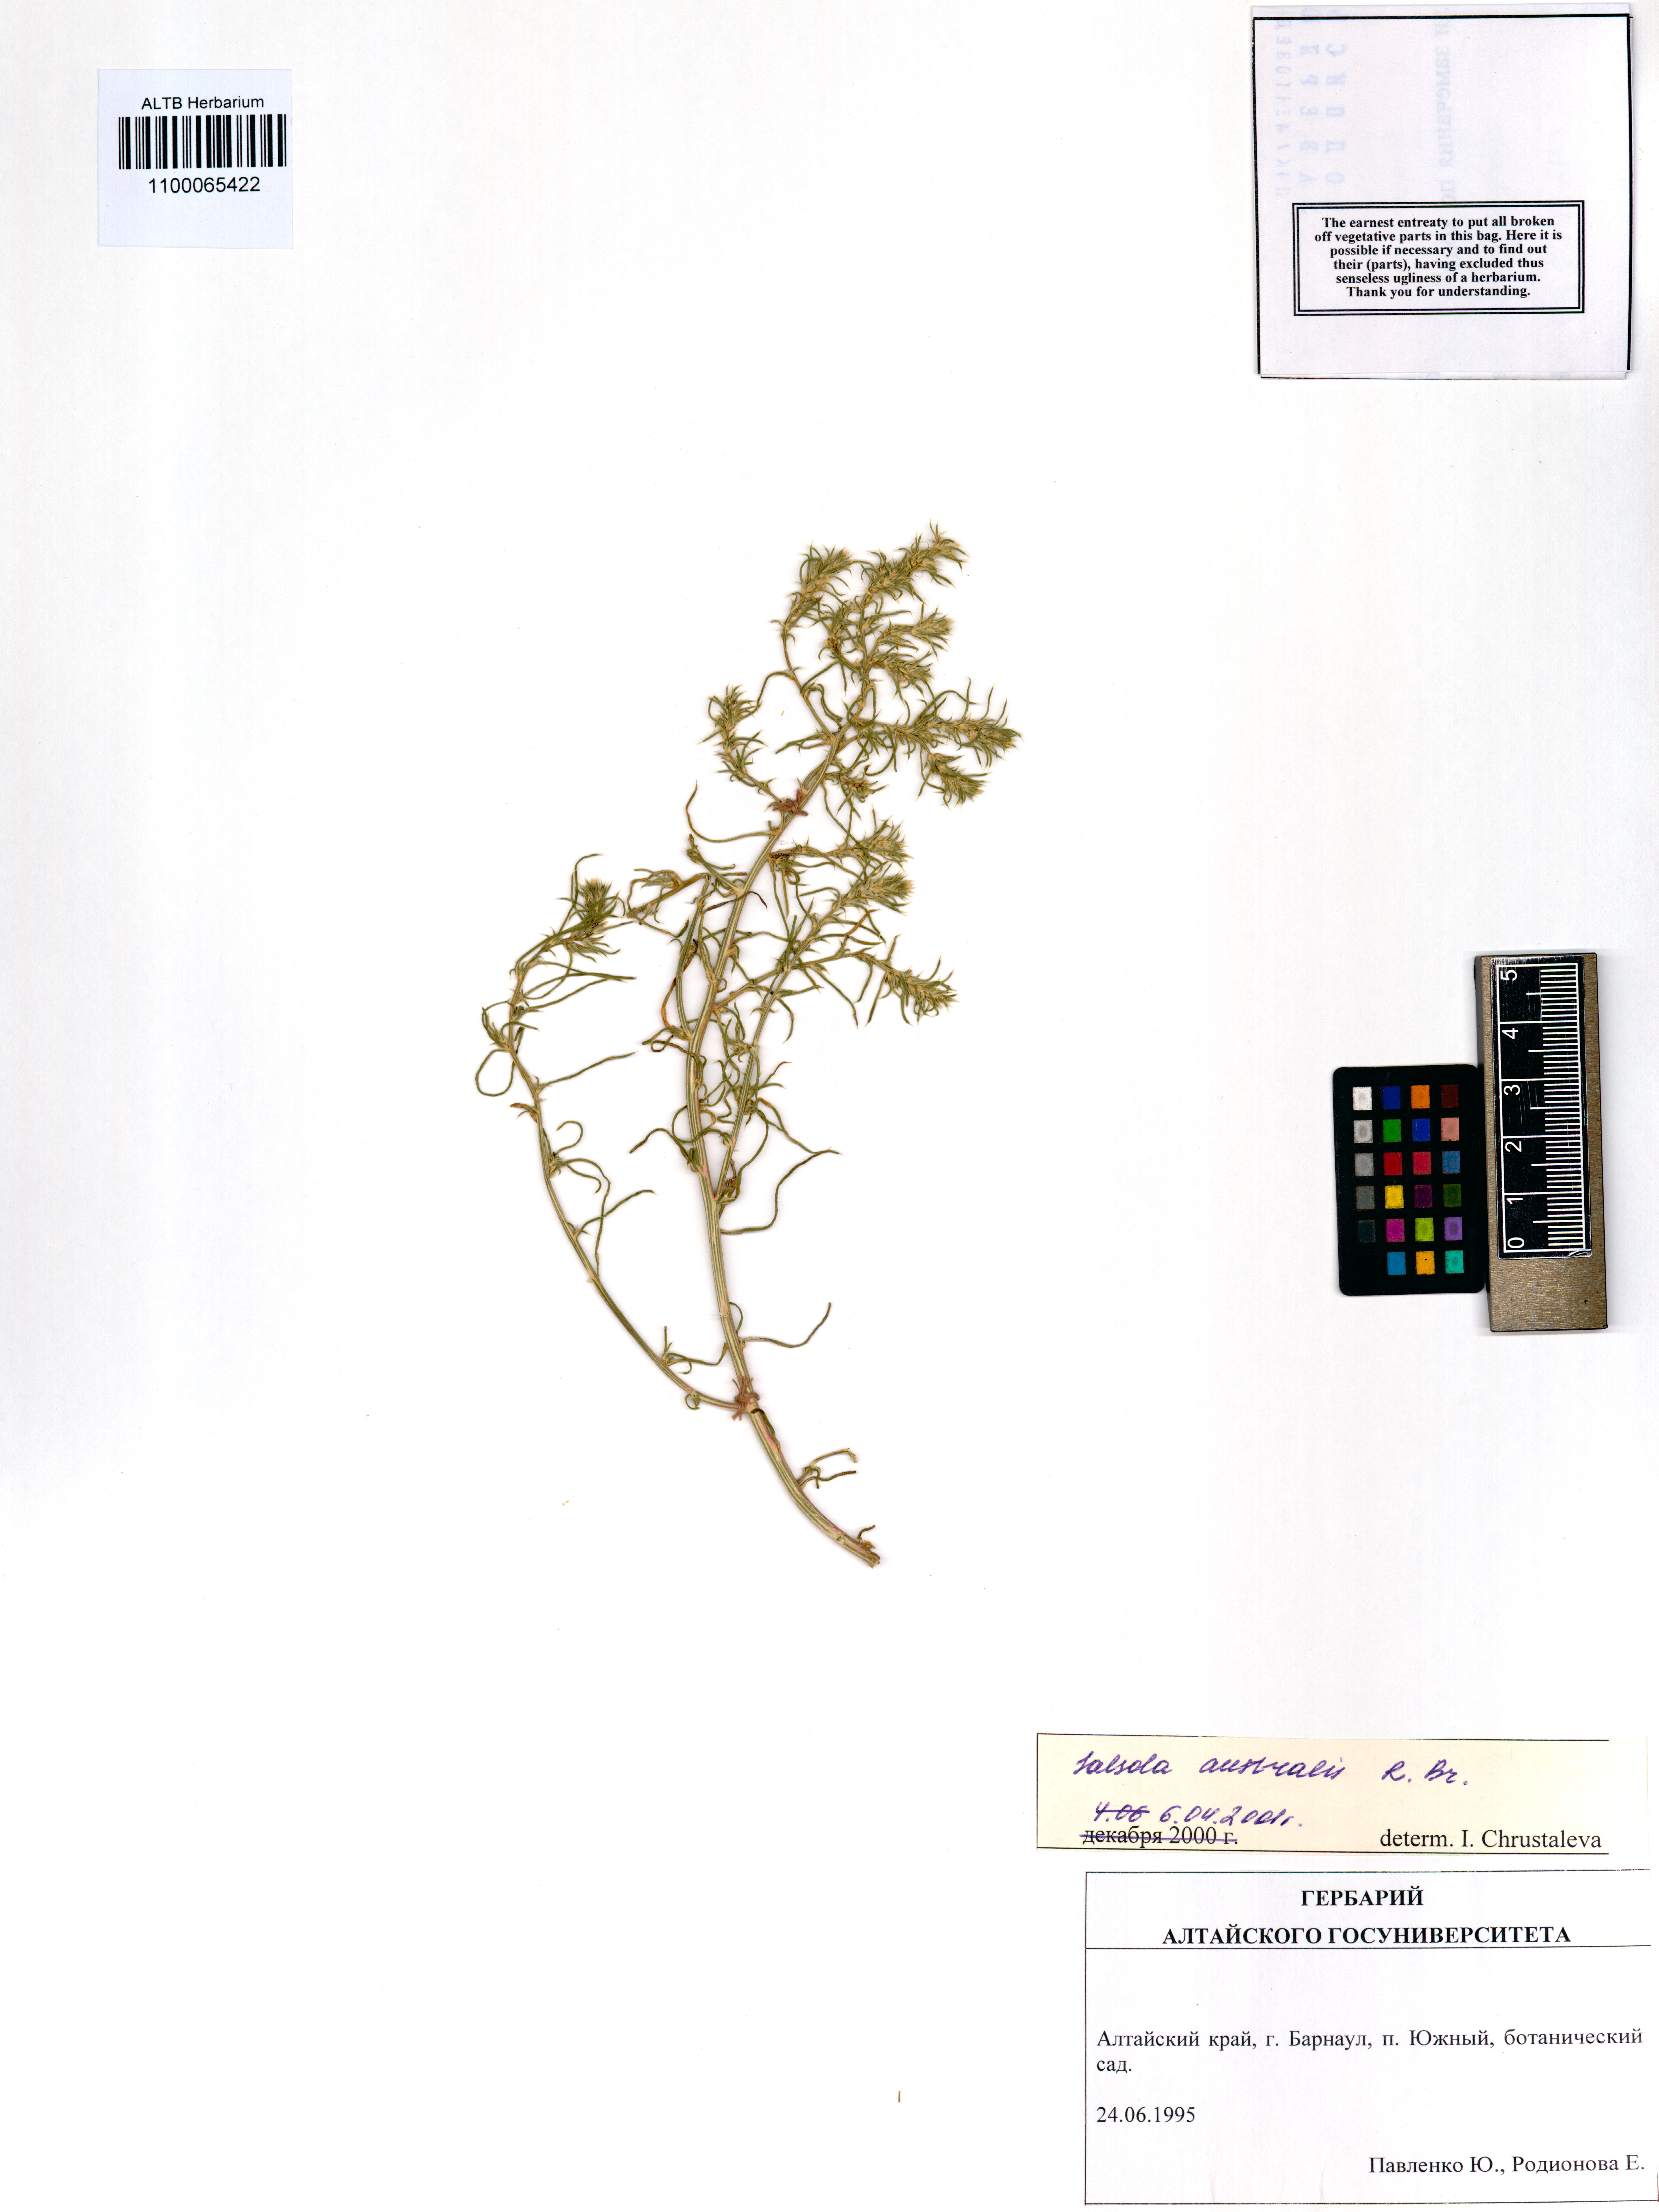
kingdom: Plantae
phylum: Tracheophyta
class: Magnoliopsida
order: Caryophyllales
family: Amaranthaceae
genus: Salsola
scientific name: Salsola australis
